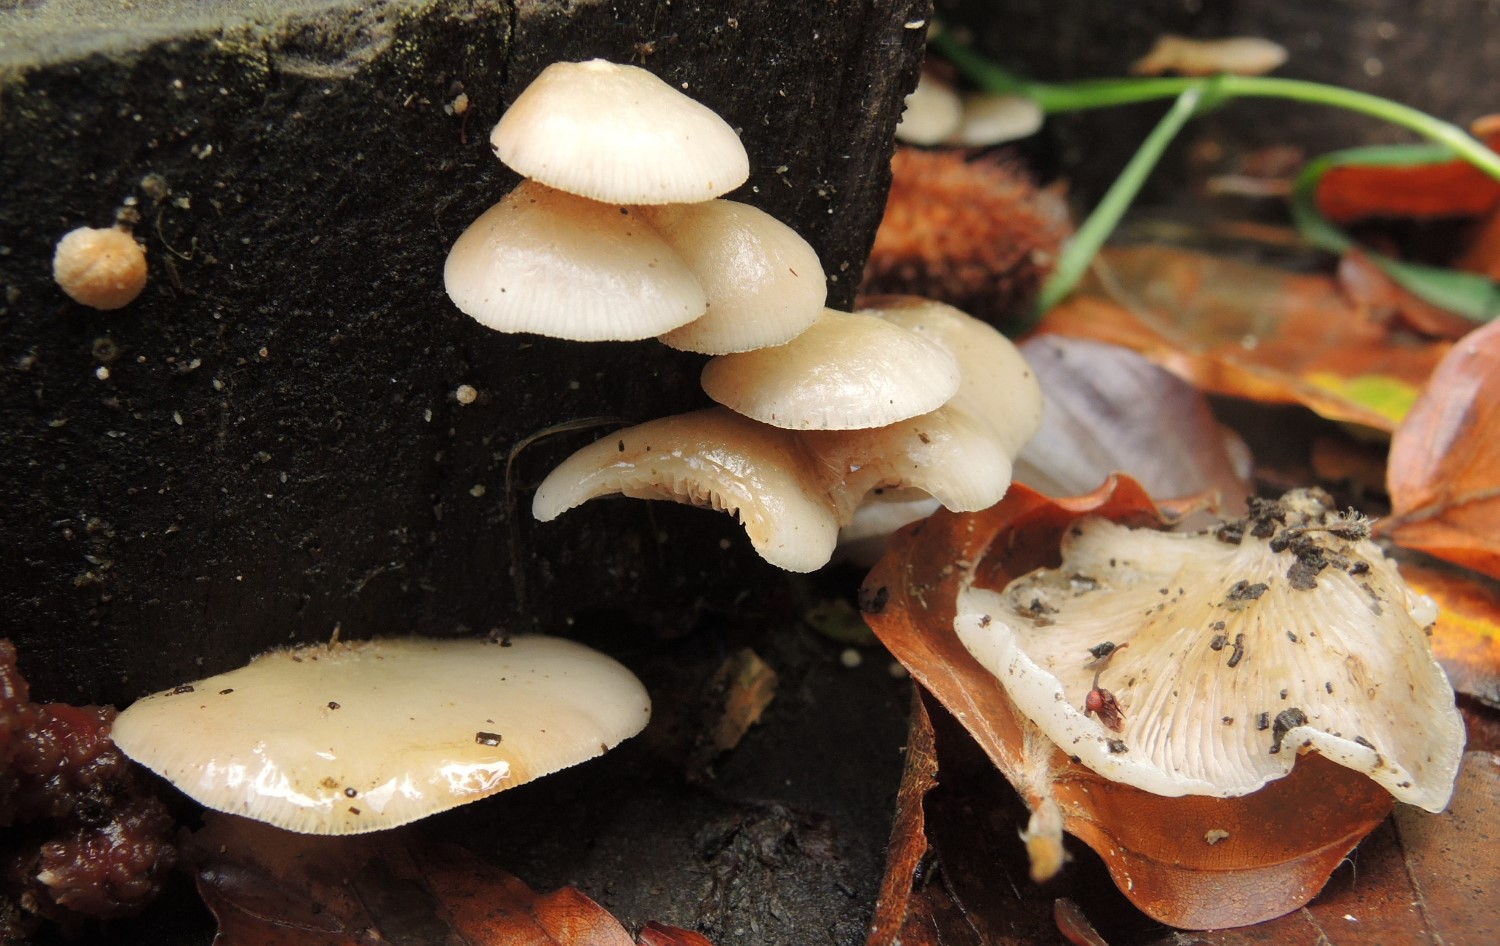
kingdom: Fungi
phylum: Basidiomycota
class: Agaricomycetes
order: Agaricales
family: Crepidotaceae
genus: Crepidotus
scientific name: Crepidotus mollis
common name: blød muslingesvamp
